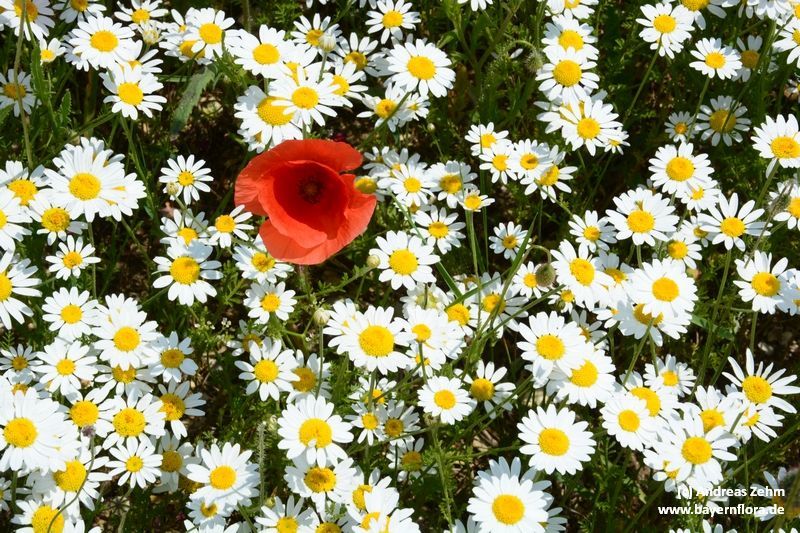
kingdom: Plantae
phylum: Tracheophyta
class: Magnoliopsida
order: Asterales
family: Asteraceae
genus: Cota
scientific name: Cota austriaca
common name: Austrian chamomile
